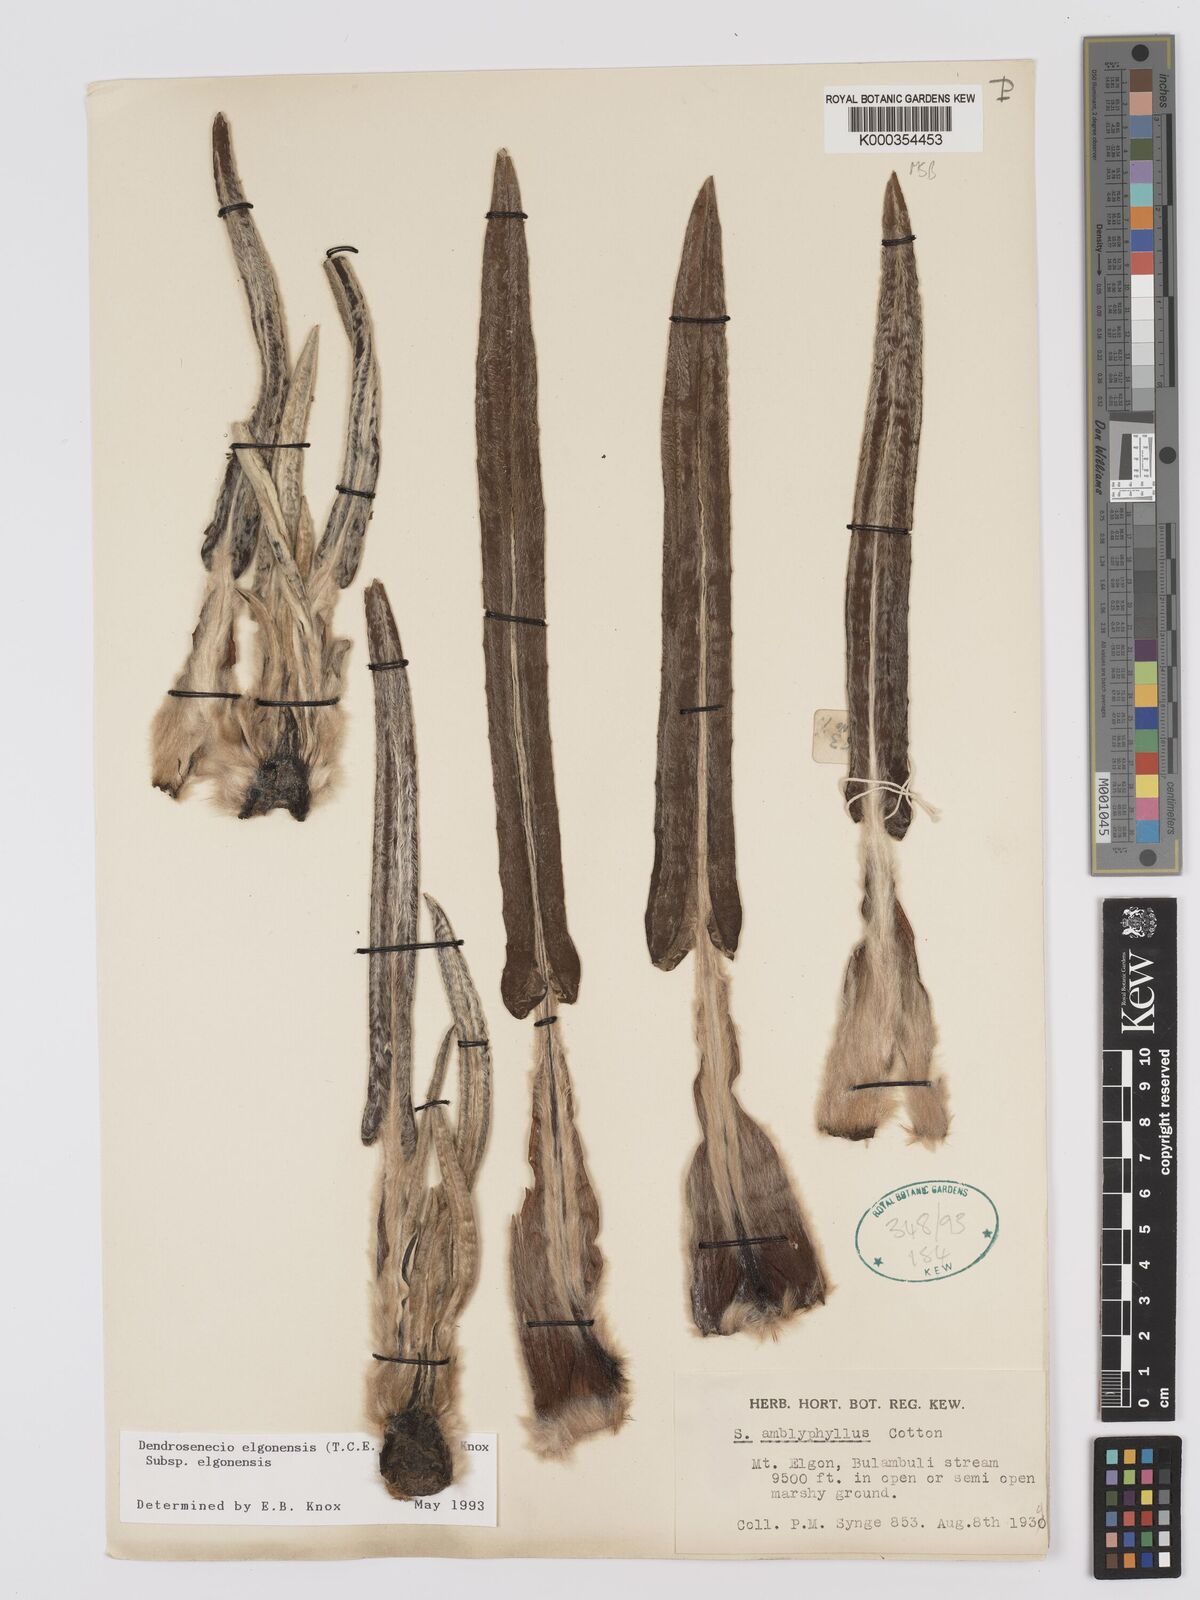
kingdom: Plantae
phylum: Tracheophyta
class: Magnoliopsida
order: Asterales
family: Asteraceae
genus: Dendrosenecio
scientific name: Dendrosenecio elgonensis
